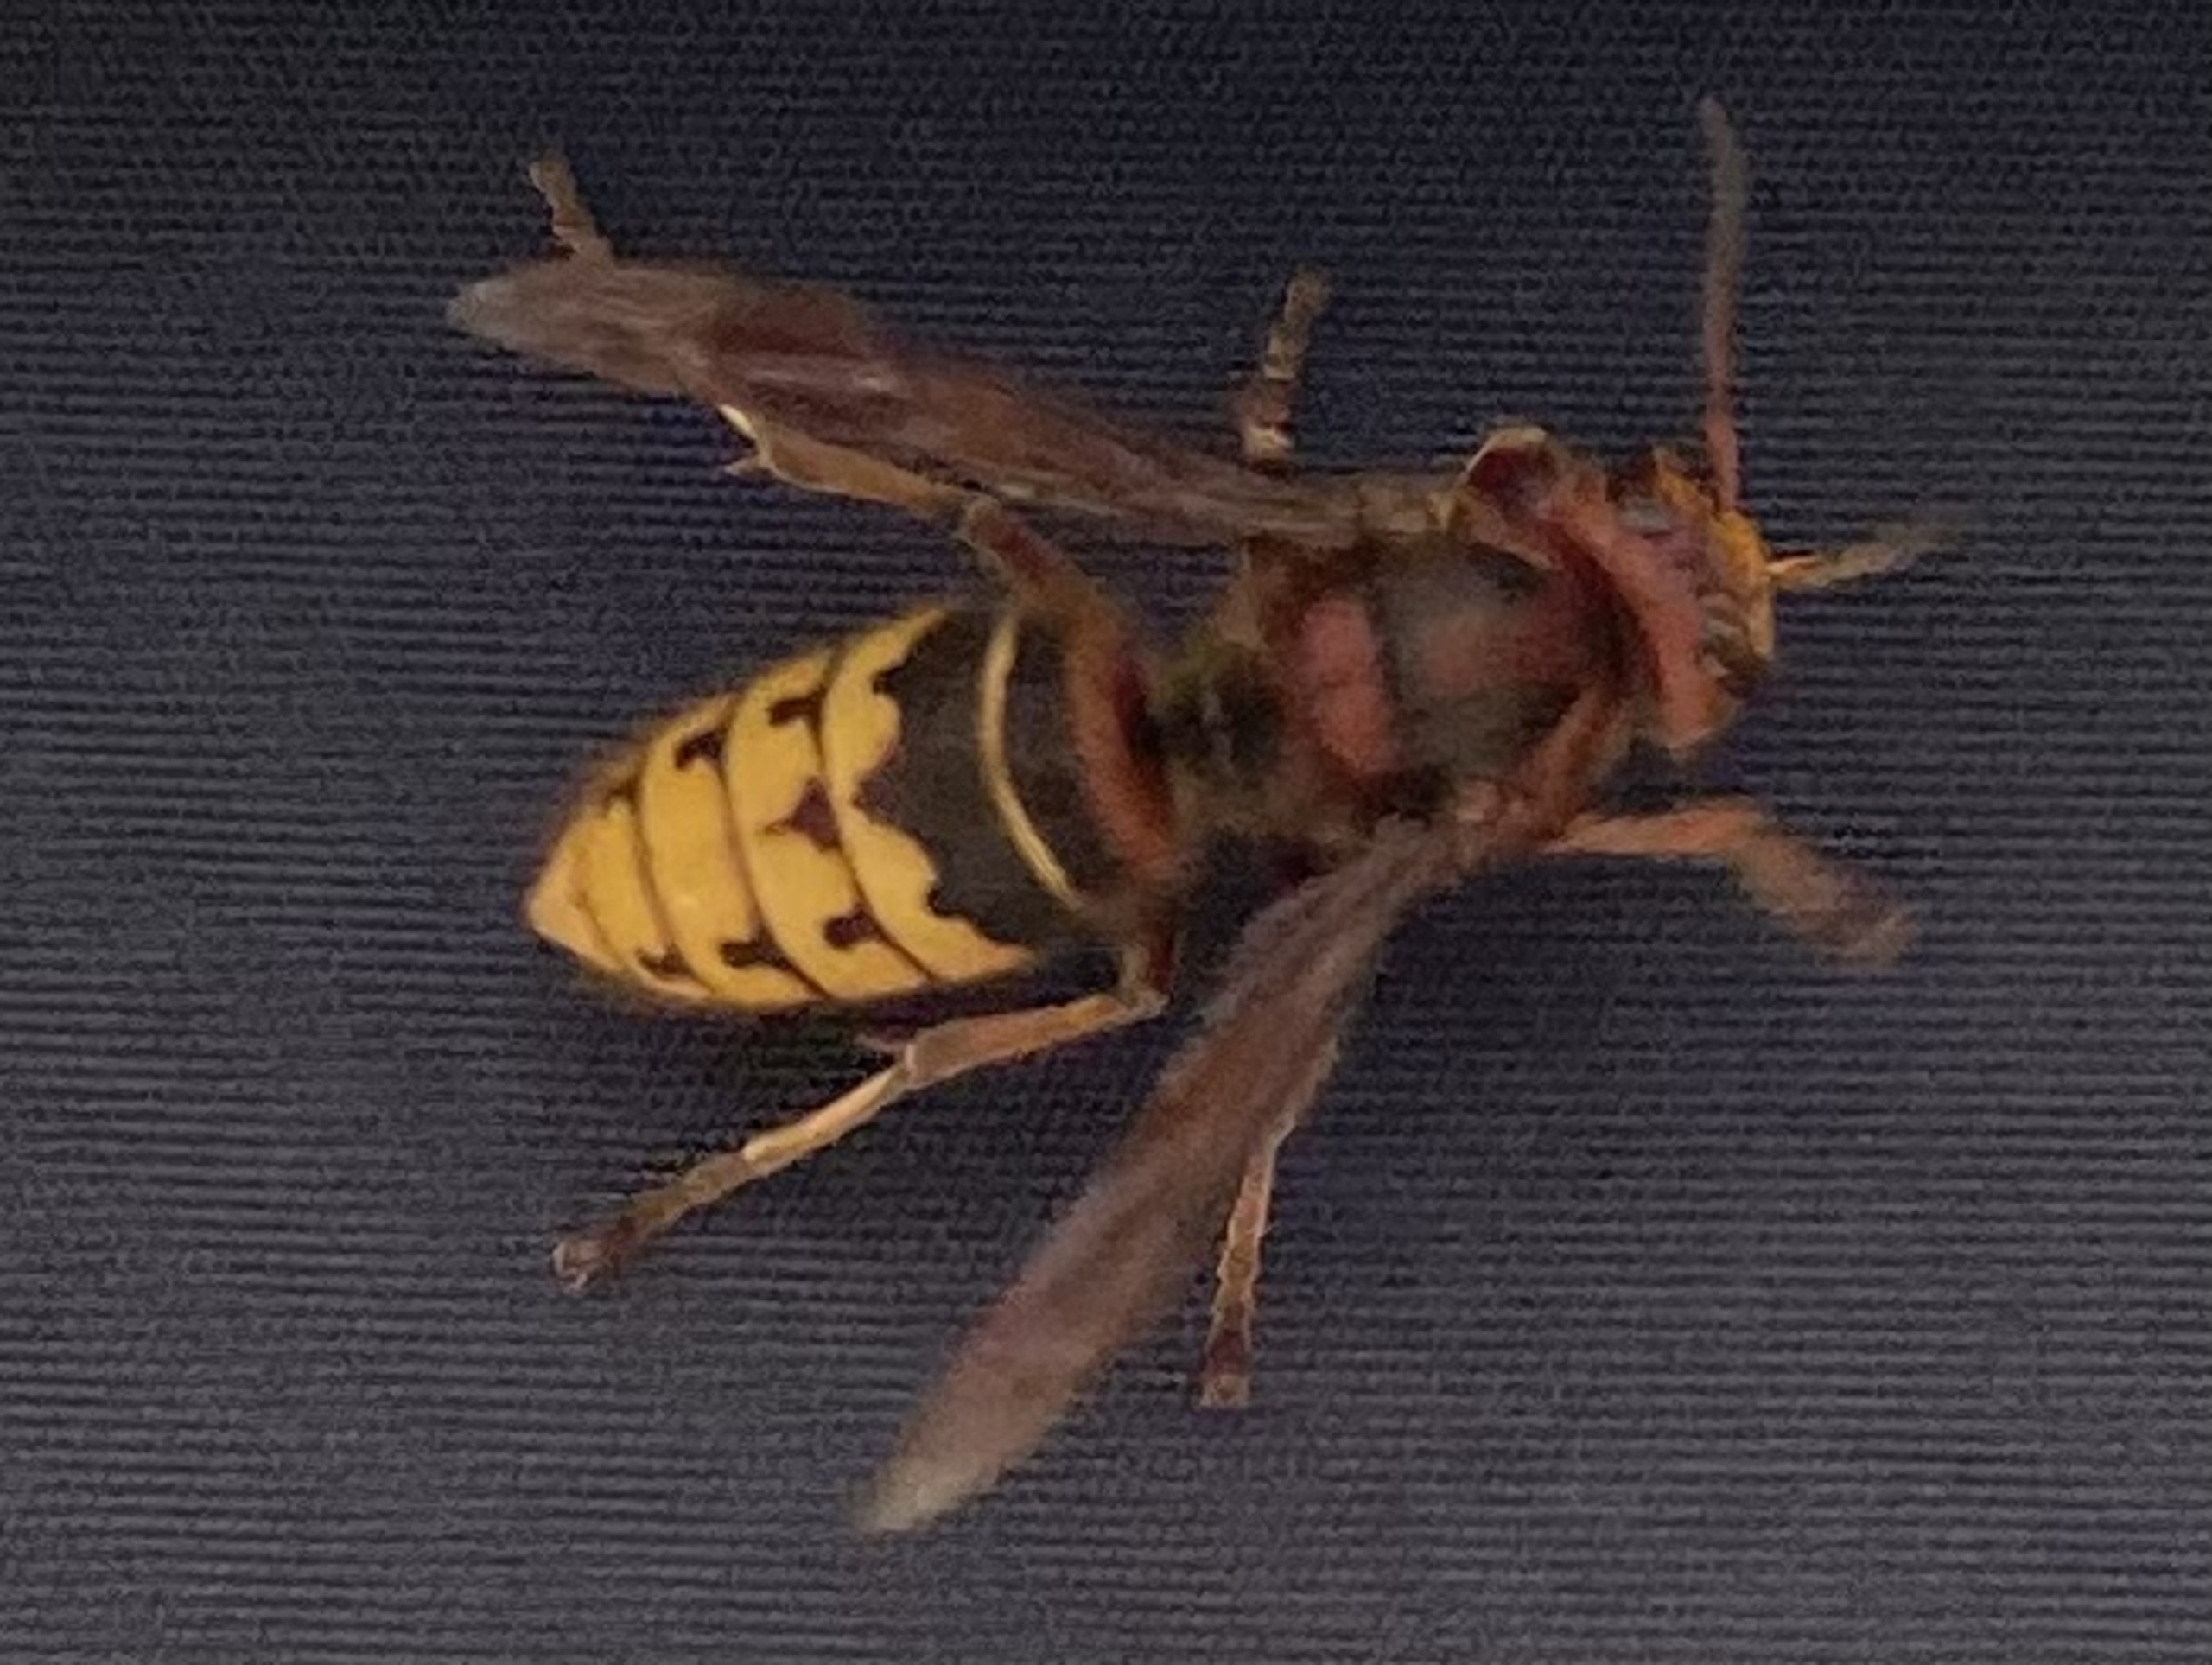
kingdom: Animalia
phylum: Arthropoda
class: Insecta
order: Hymenoptera
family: Vespidae
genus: Vespa
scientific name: Vespa crabro
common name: Stor gedehams
